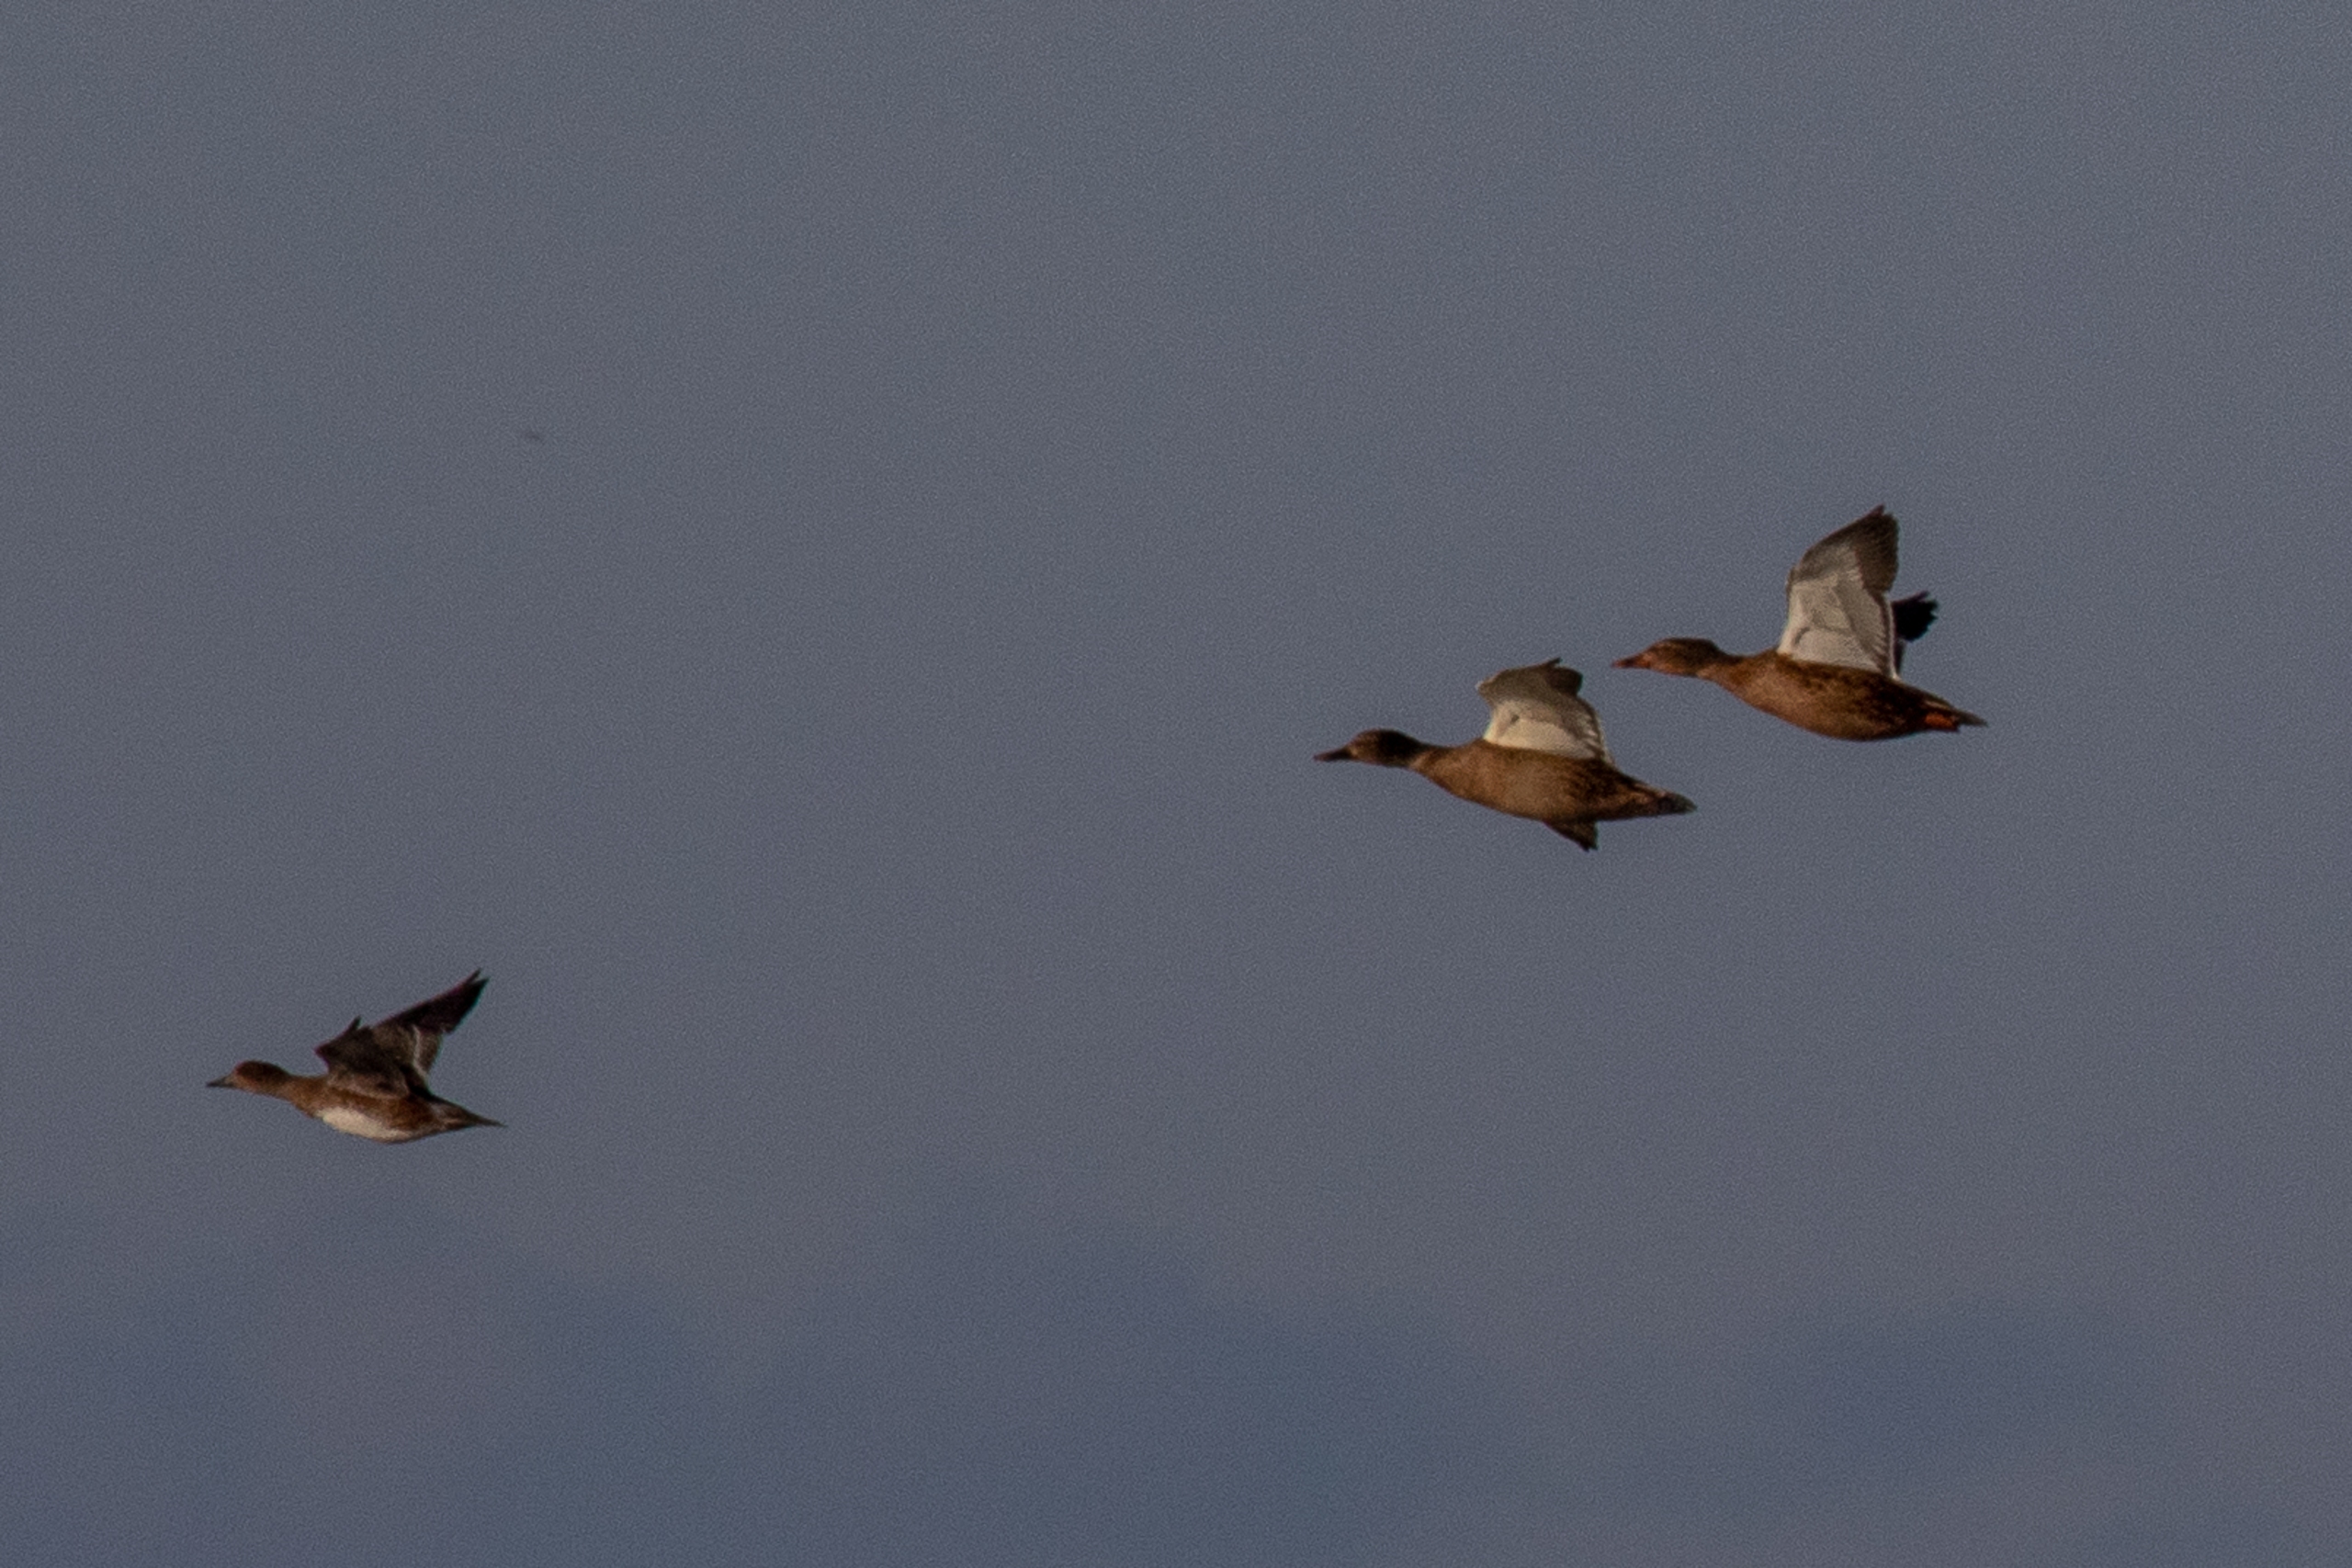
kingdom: Animalia
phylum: Chordata
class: Aves
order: Anseriformes
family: Anatidae
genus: Mareca
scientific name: Mareca penelope
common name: Pibeand
